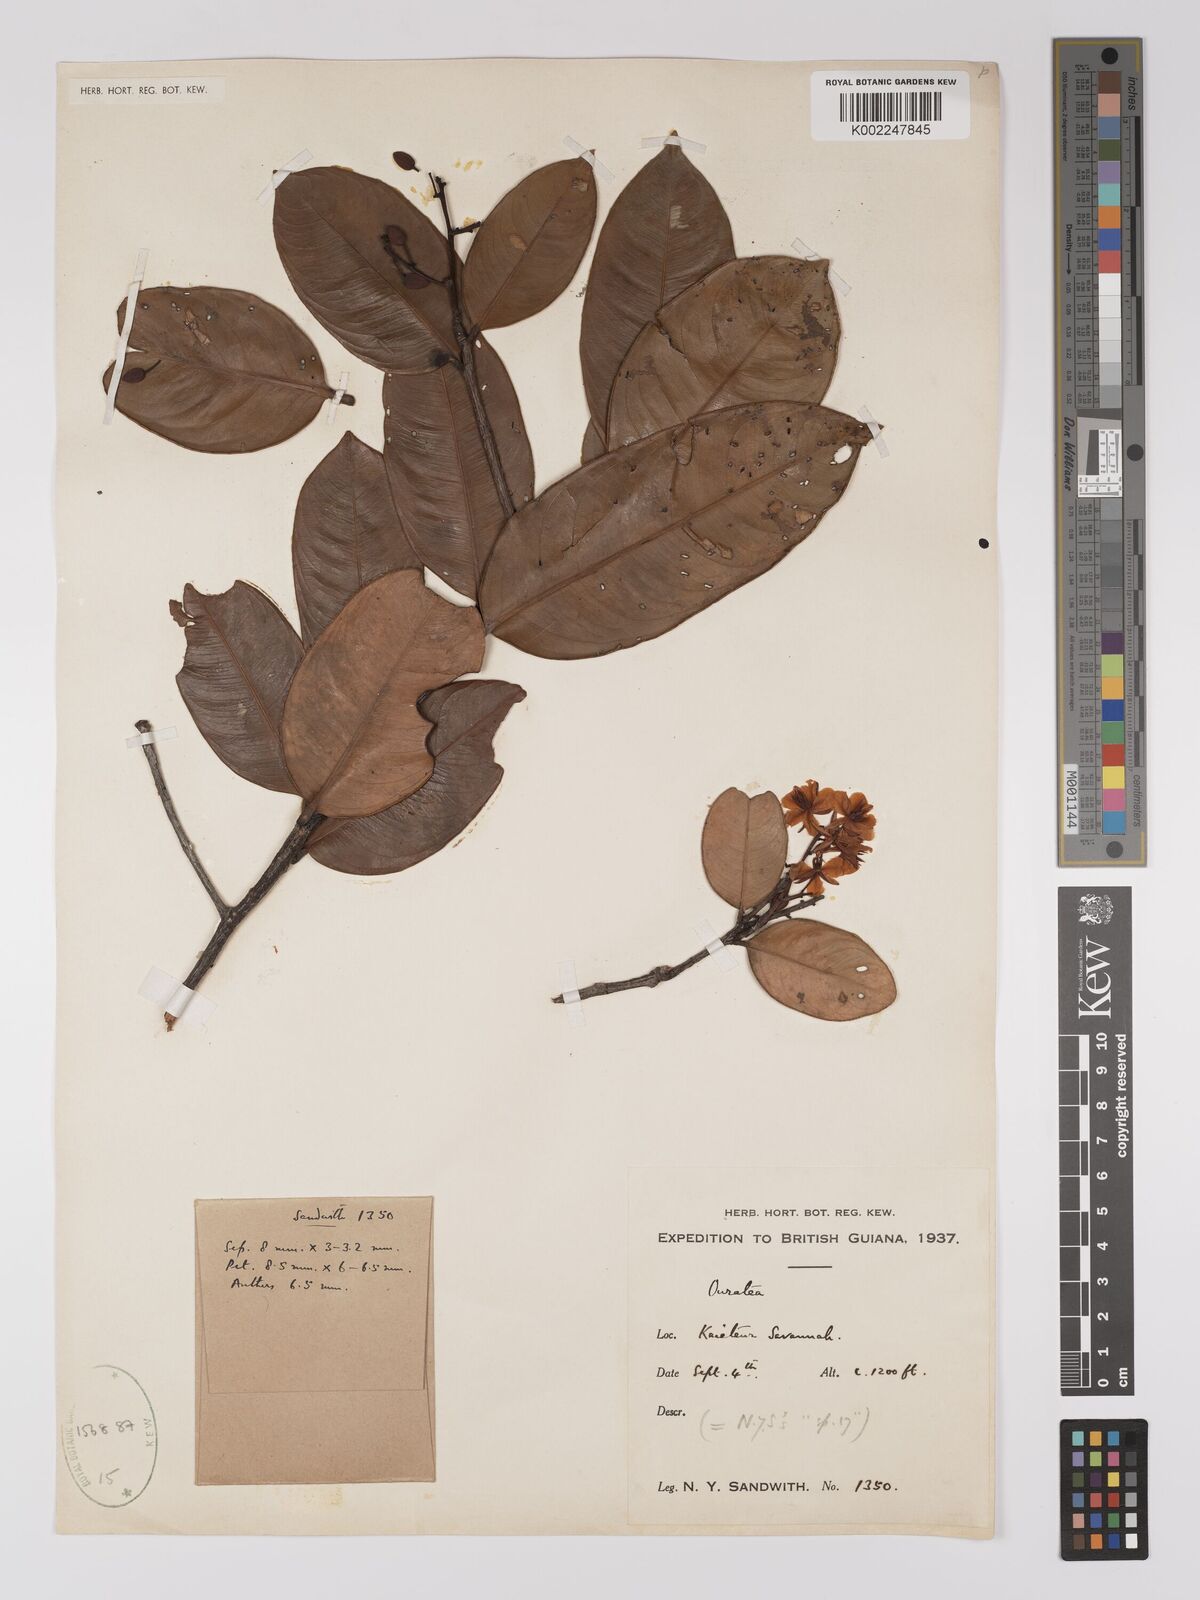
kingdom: Plantae
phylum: Tracheophyta
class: Magnoliopsida
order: Malpighiales
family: Ochnaceae
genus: Ouratea
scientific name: Ouratea
